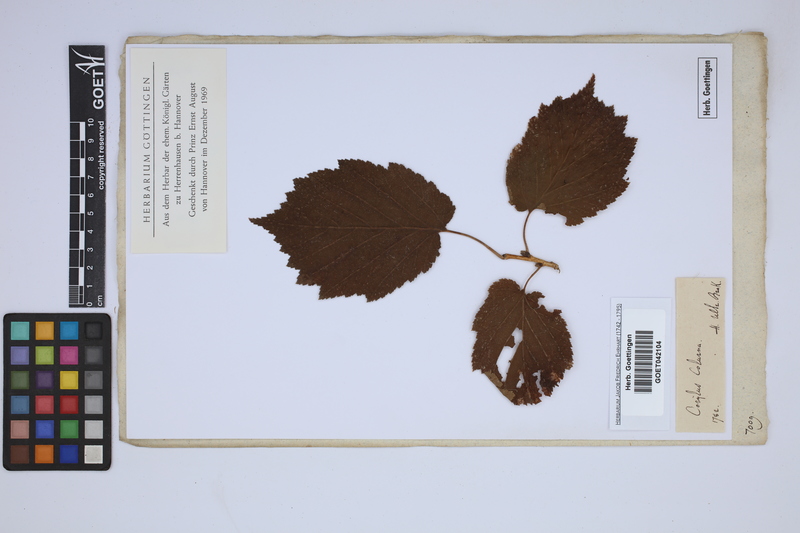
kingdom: Plantae
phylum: Tracheophyta
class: Magnoliopsida
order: Fagales
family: Betulaceae
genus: Corylus
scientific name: Corylus colurna
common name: Turkish hazel
